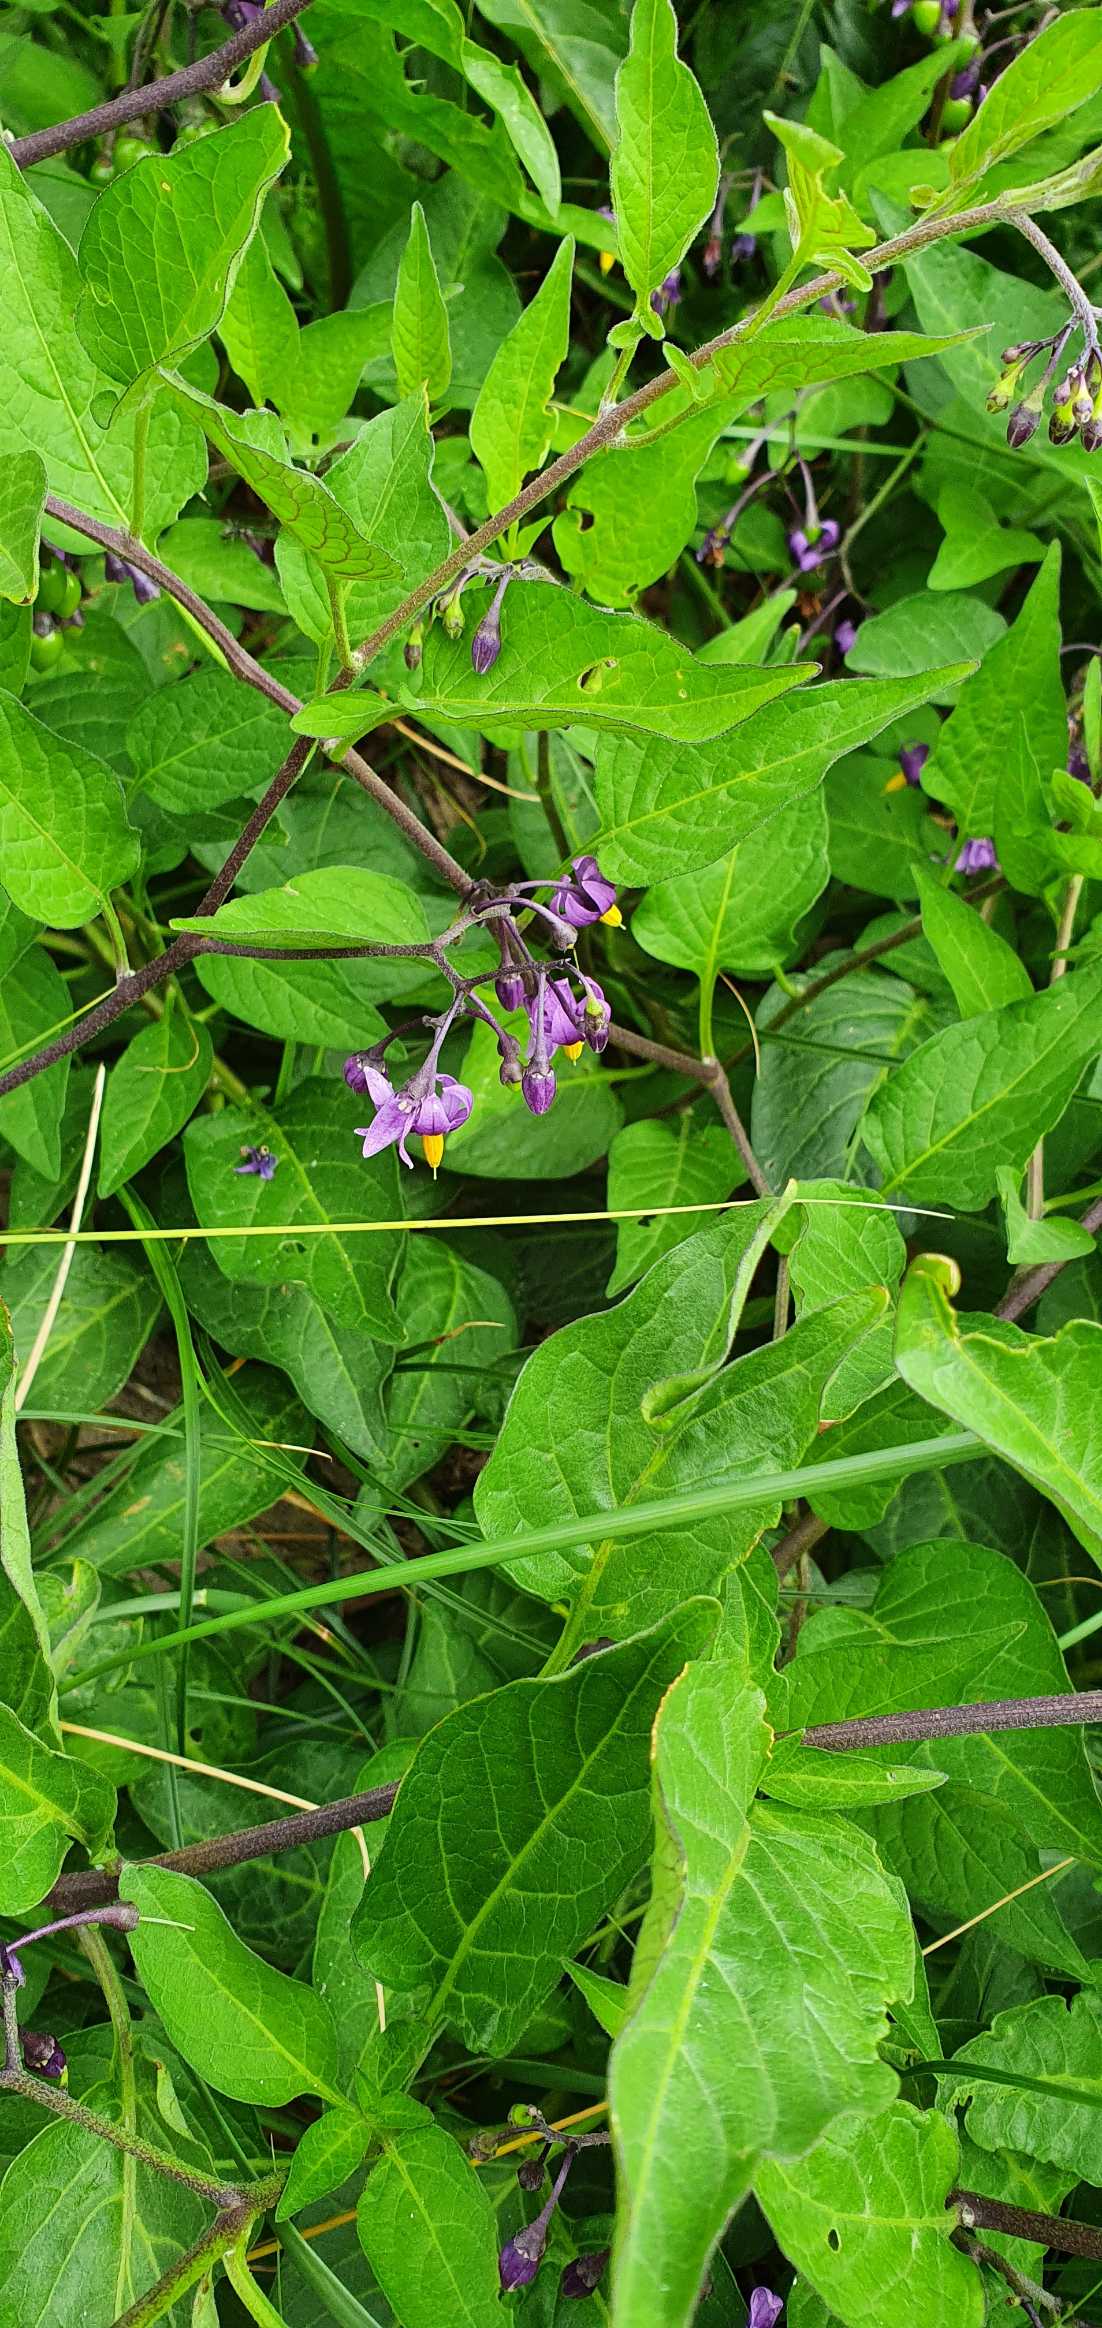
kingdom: Plantae
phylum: Tracheophyta
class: Magnoliopsida
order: Solanales
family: Solanaceae
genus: Solanum
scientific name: Solanum dulcamara
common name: Bittersød natskygge
